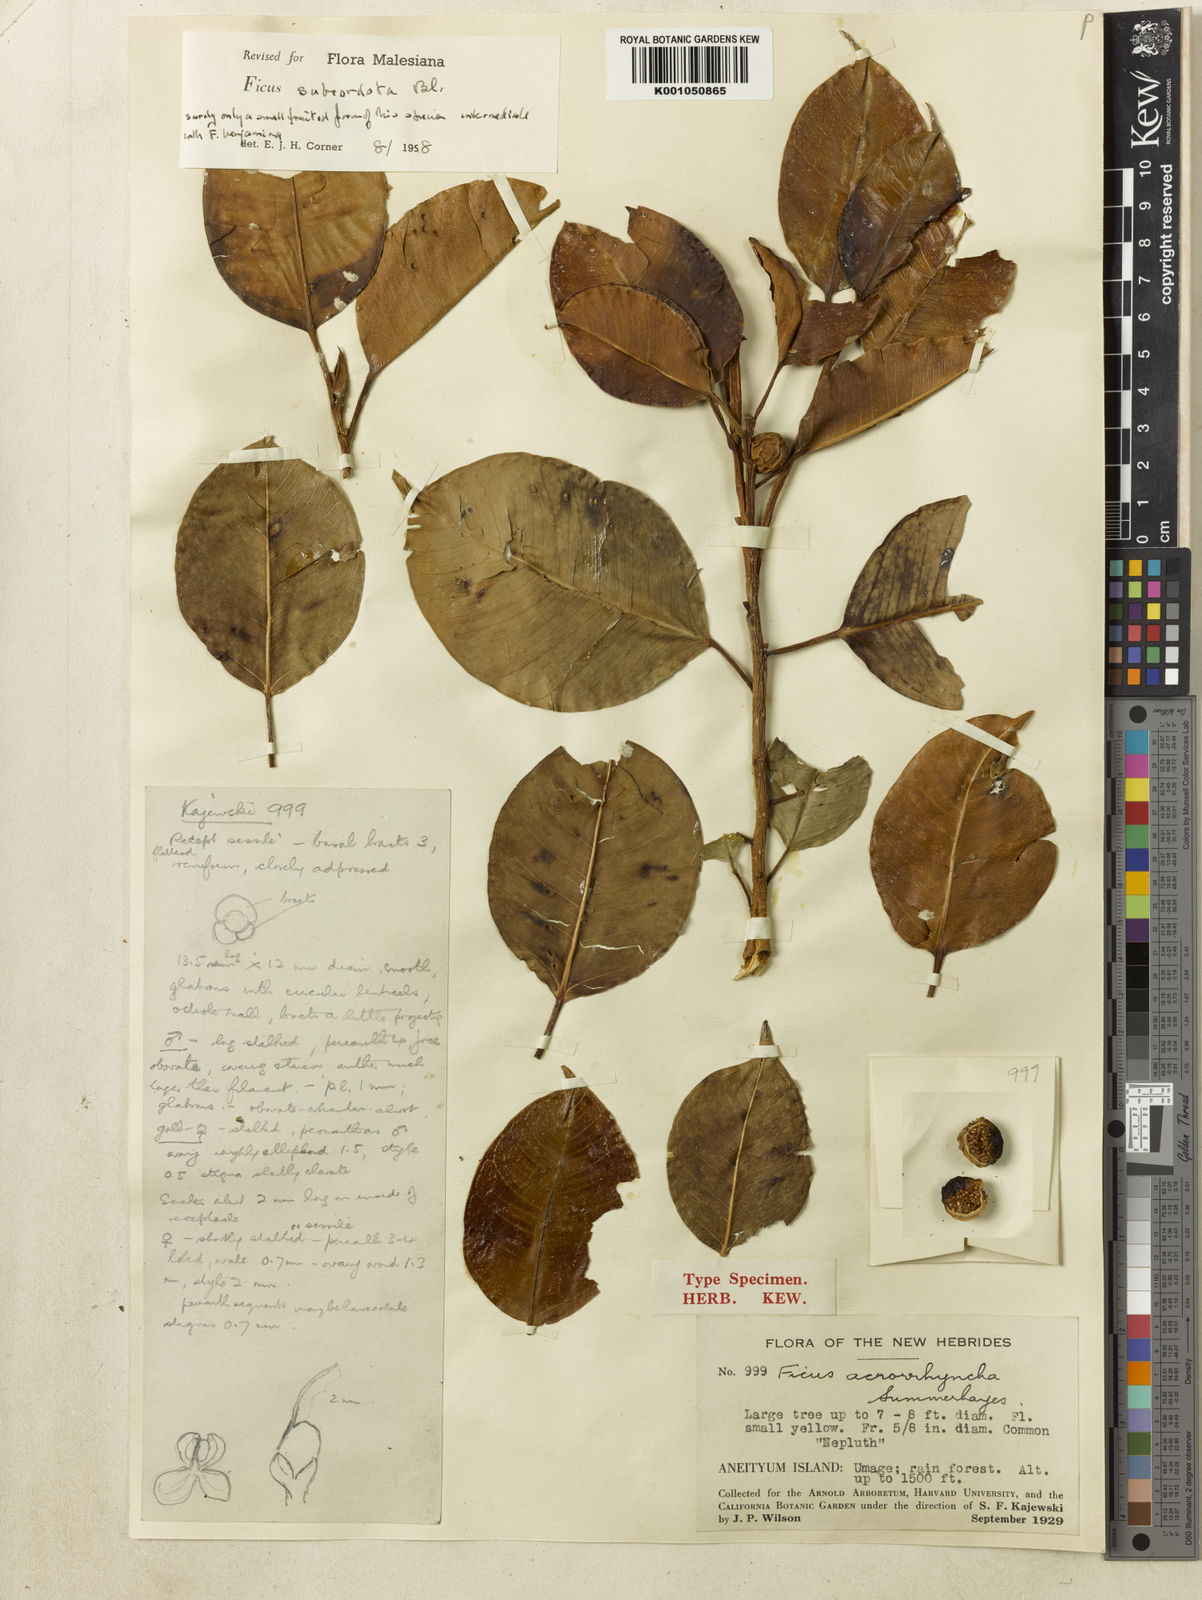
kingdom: Plantae
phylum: Tracheophyta
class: Magnoliopsida
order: Rosales
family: Moraceae
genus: Ficus
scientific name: Ficus subcordata
